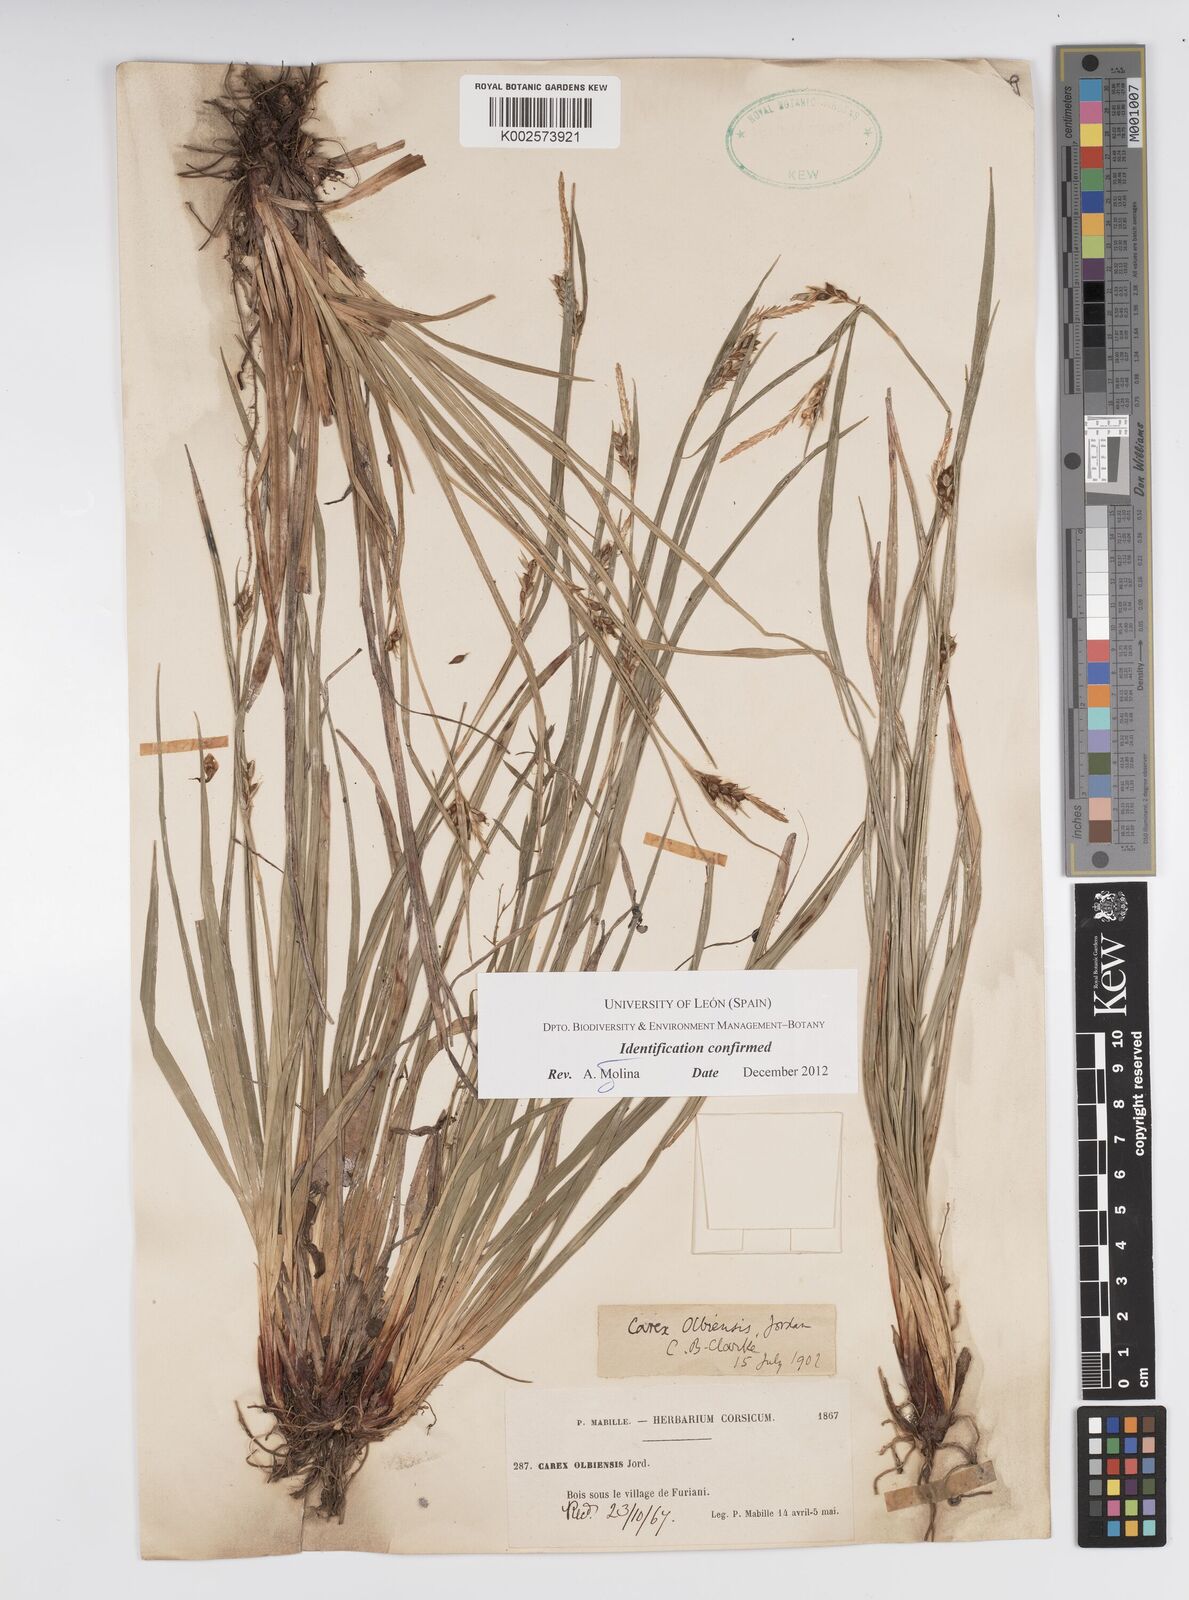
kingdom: Plantae
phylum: Tracheophyta
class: Liliopsida
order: Poales
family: Cyperaceae
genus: Carex
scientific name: Carex olbiensis
